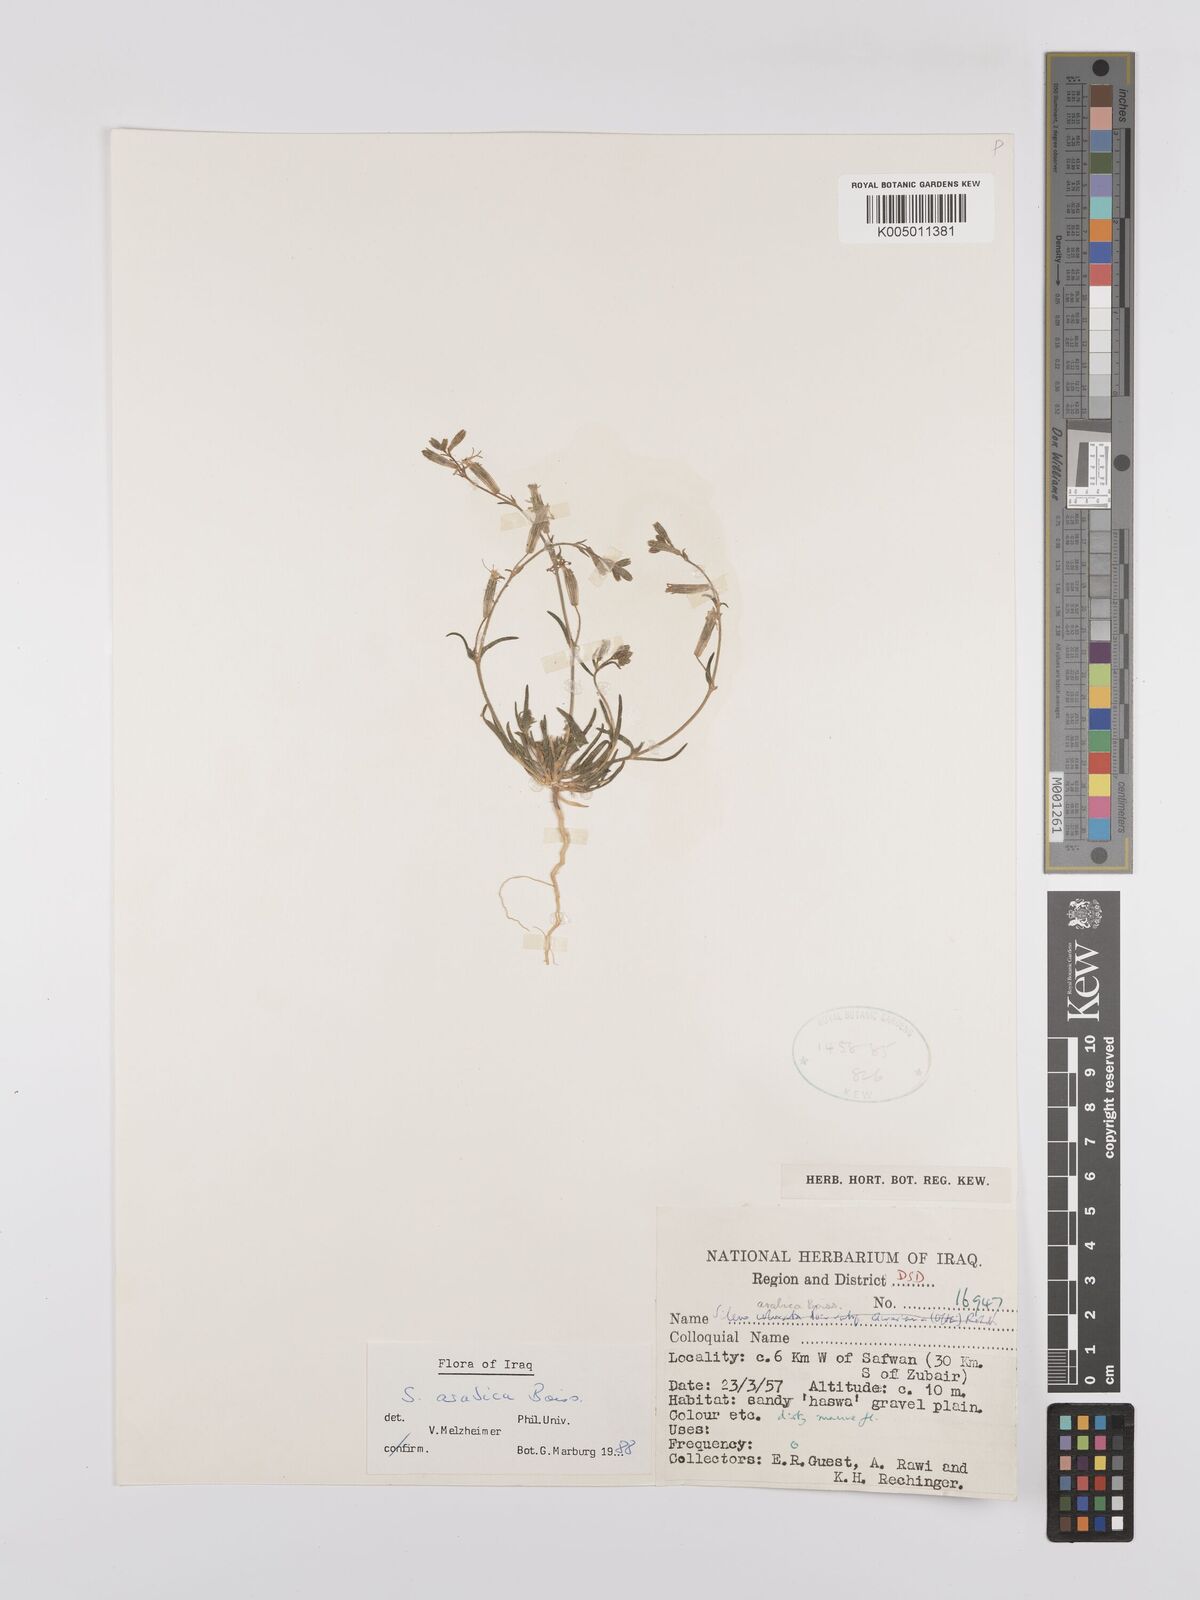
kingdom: Plantae
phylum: Tracheophyta
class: Magnoliopsida
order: Caryophyllales
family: Caryophyllaceae
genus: Silene
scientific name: Silene arabica
